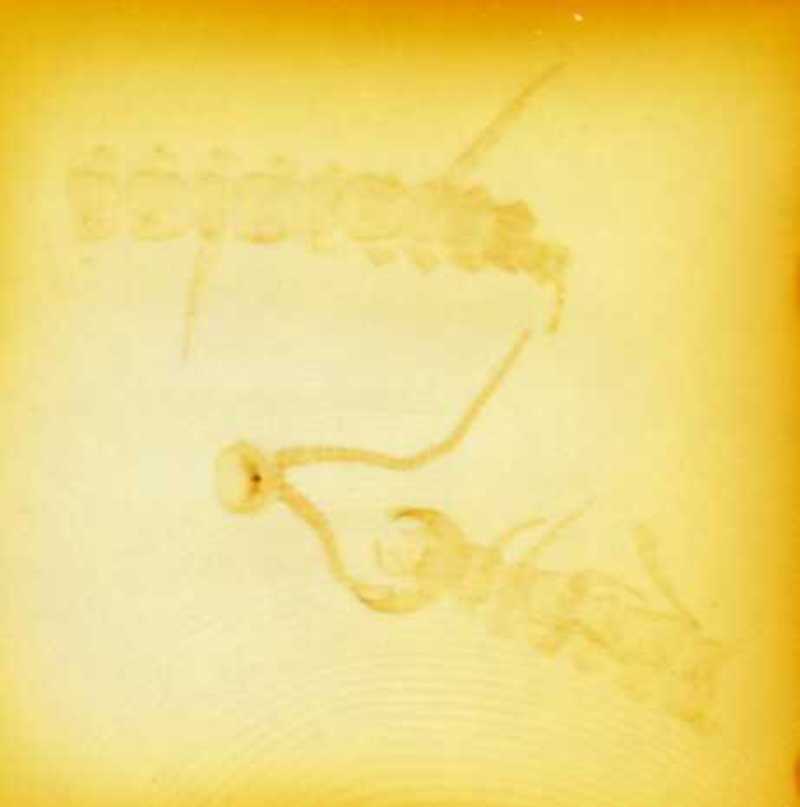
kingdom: Animalia
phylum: Arthropoda
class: Chilopoda
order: Lithobiomorpha
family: Lithobiidae
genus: Lithobius
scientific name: Lithobius dahlii
